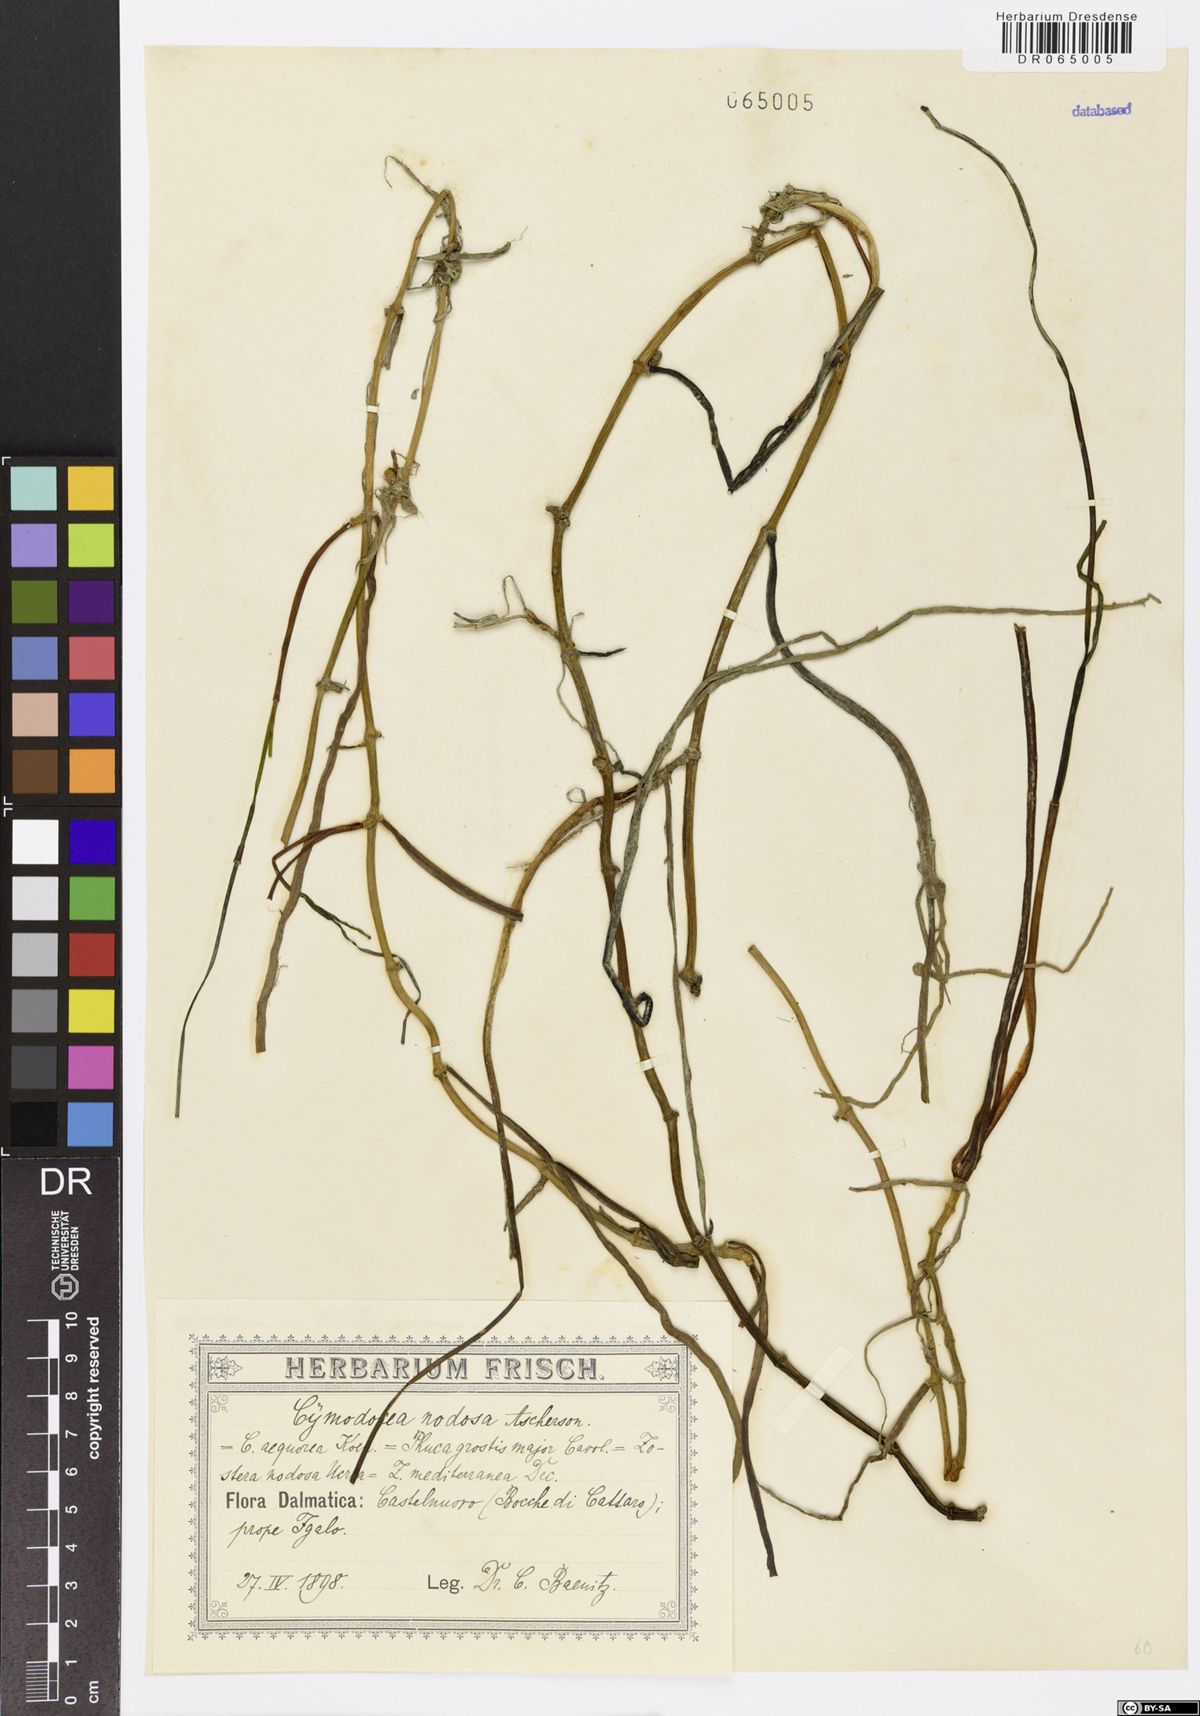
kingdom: Plantae
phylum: Tracheophyta
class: Liliopsida
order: Alismatales
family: Cymodoceaceae
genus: Cymodocea
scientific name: Cymodocea nodosa
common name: Slender seagrass
